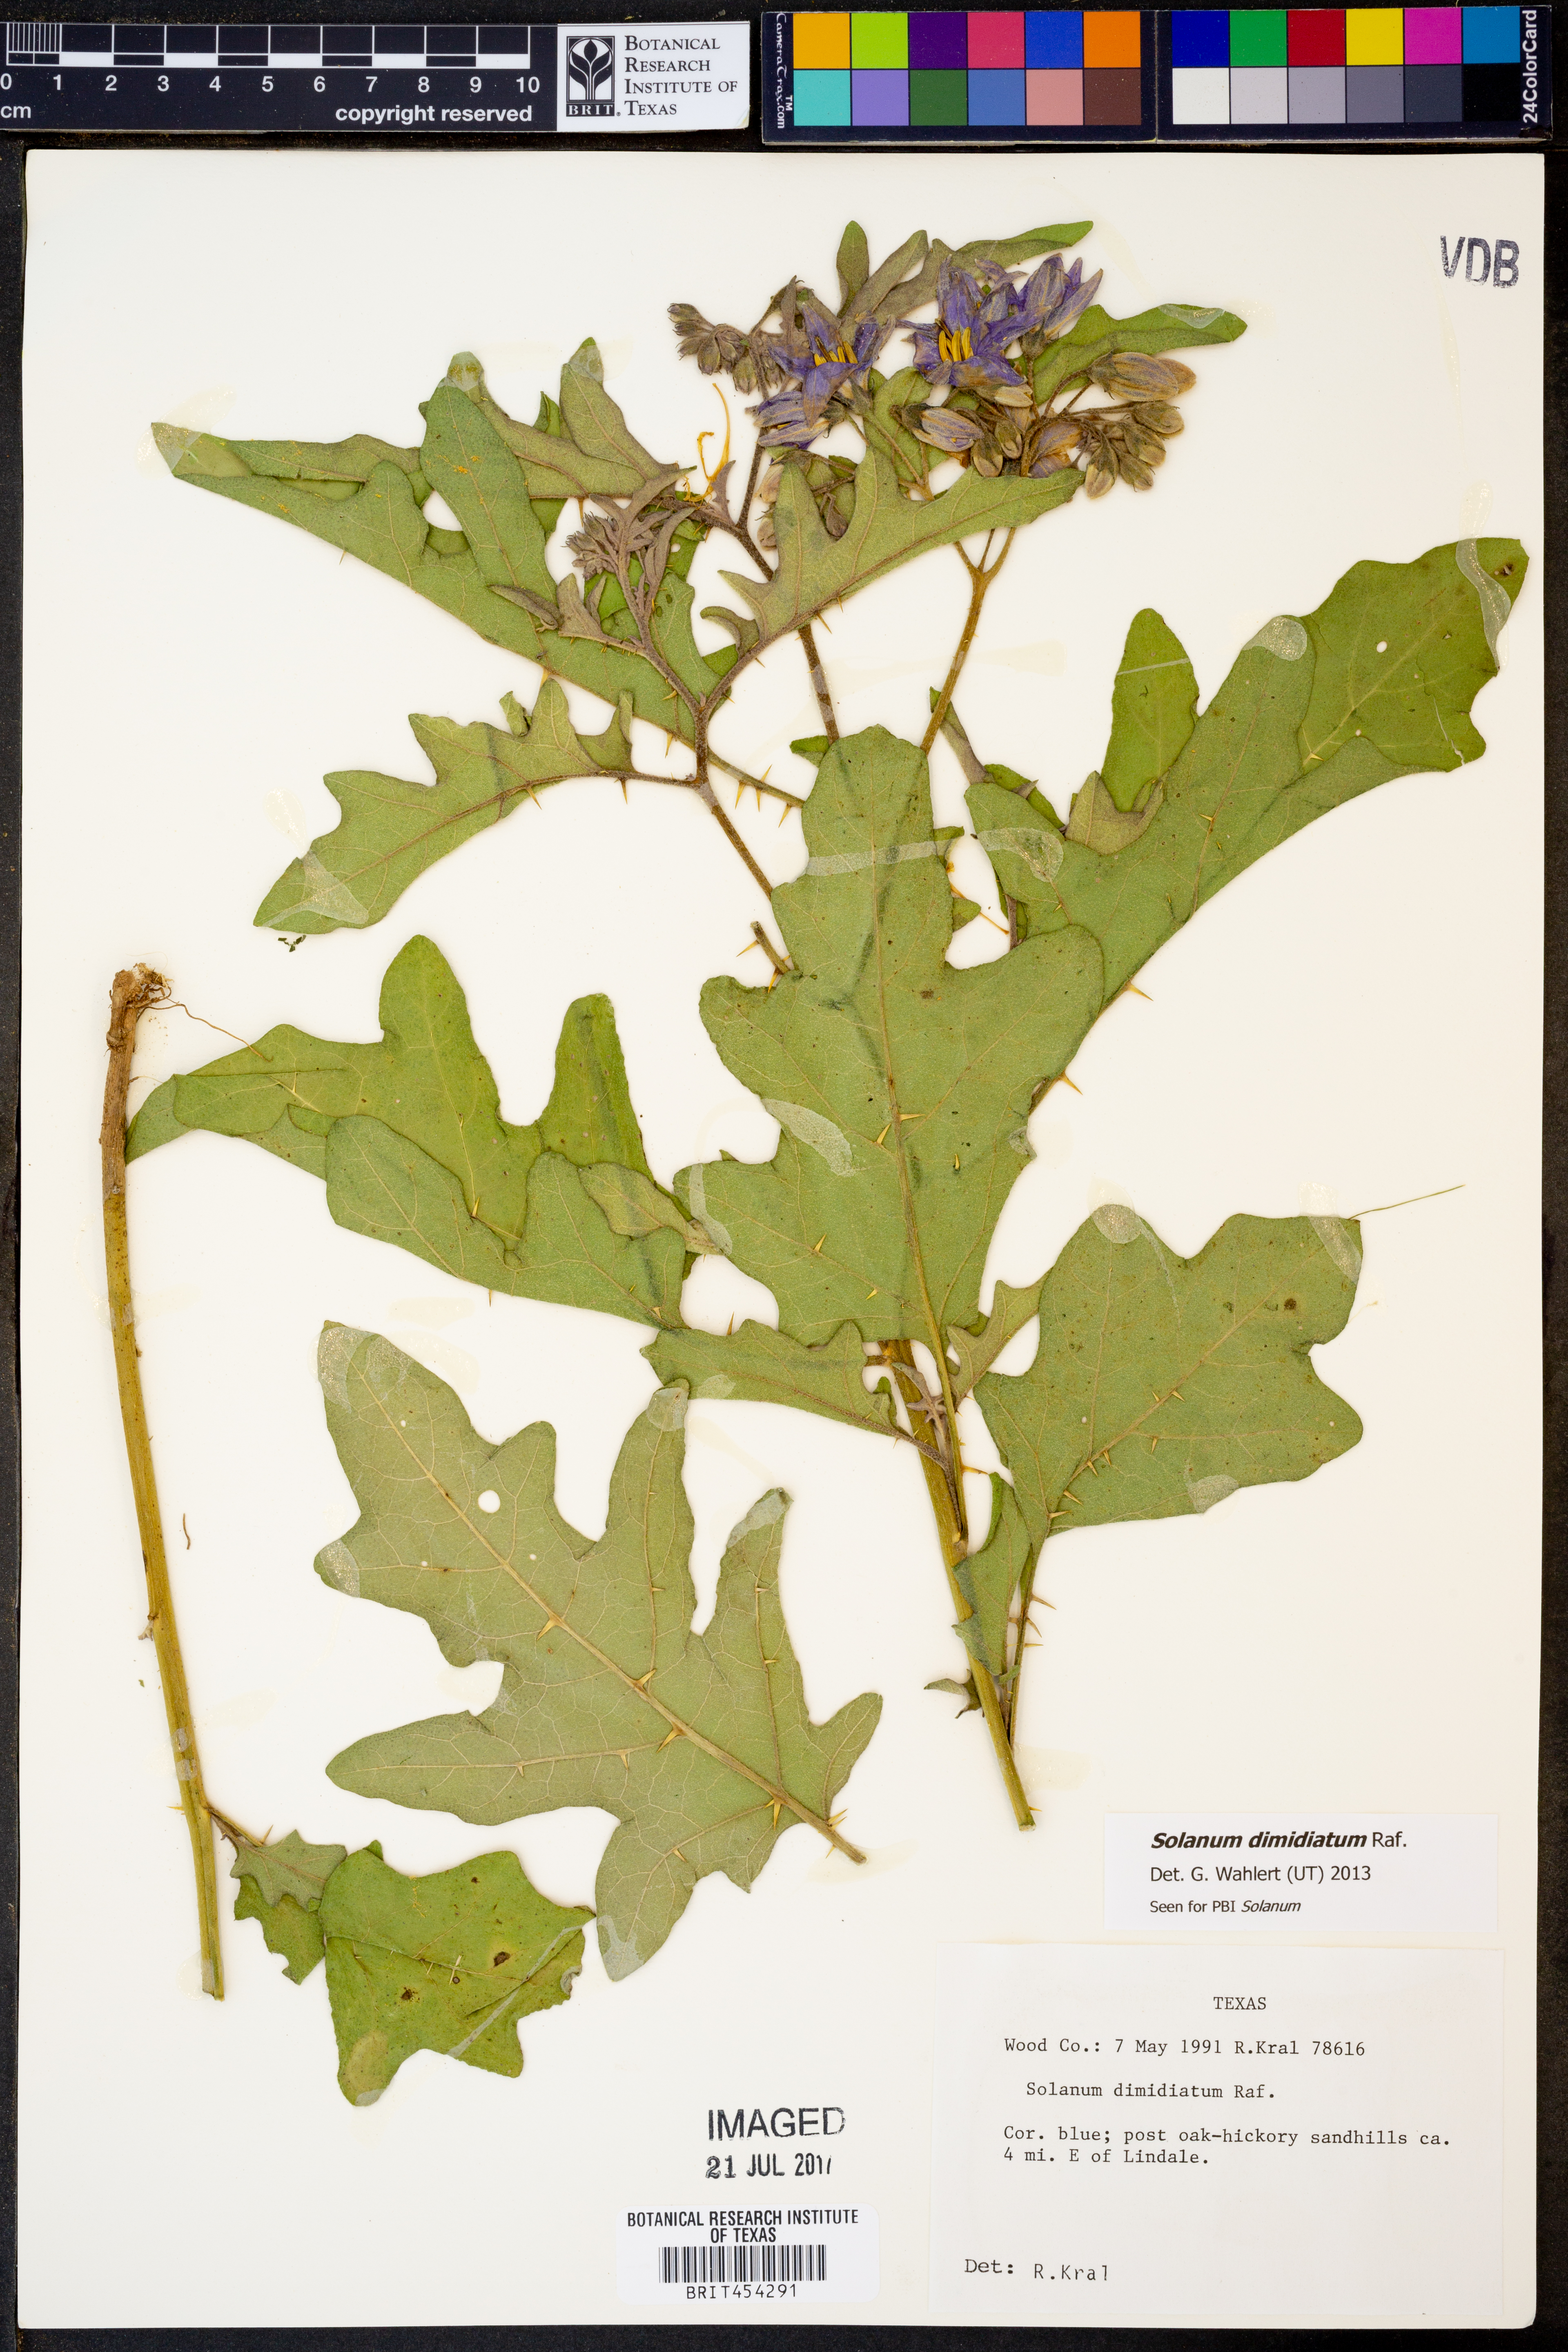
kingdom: Plantae
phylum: Tracheophyta
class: Magnoliopsida
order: Solanales
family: Solanaceae
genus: Solanum
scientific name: Solanum dimidiatum
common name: Carolina horse-nettle
